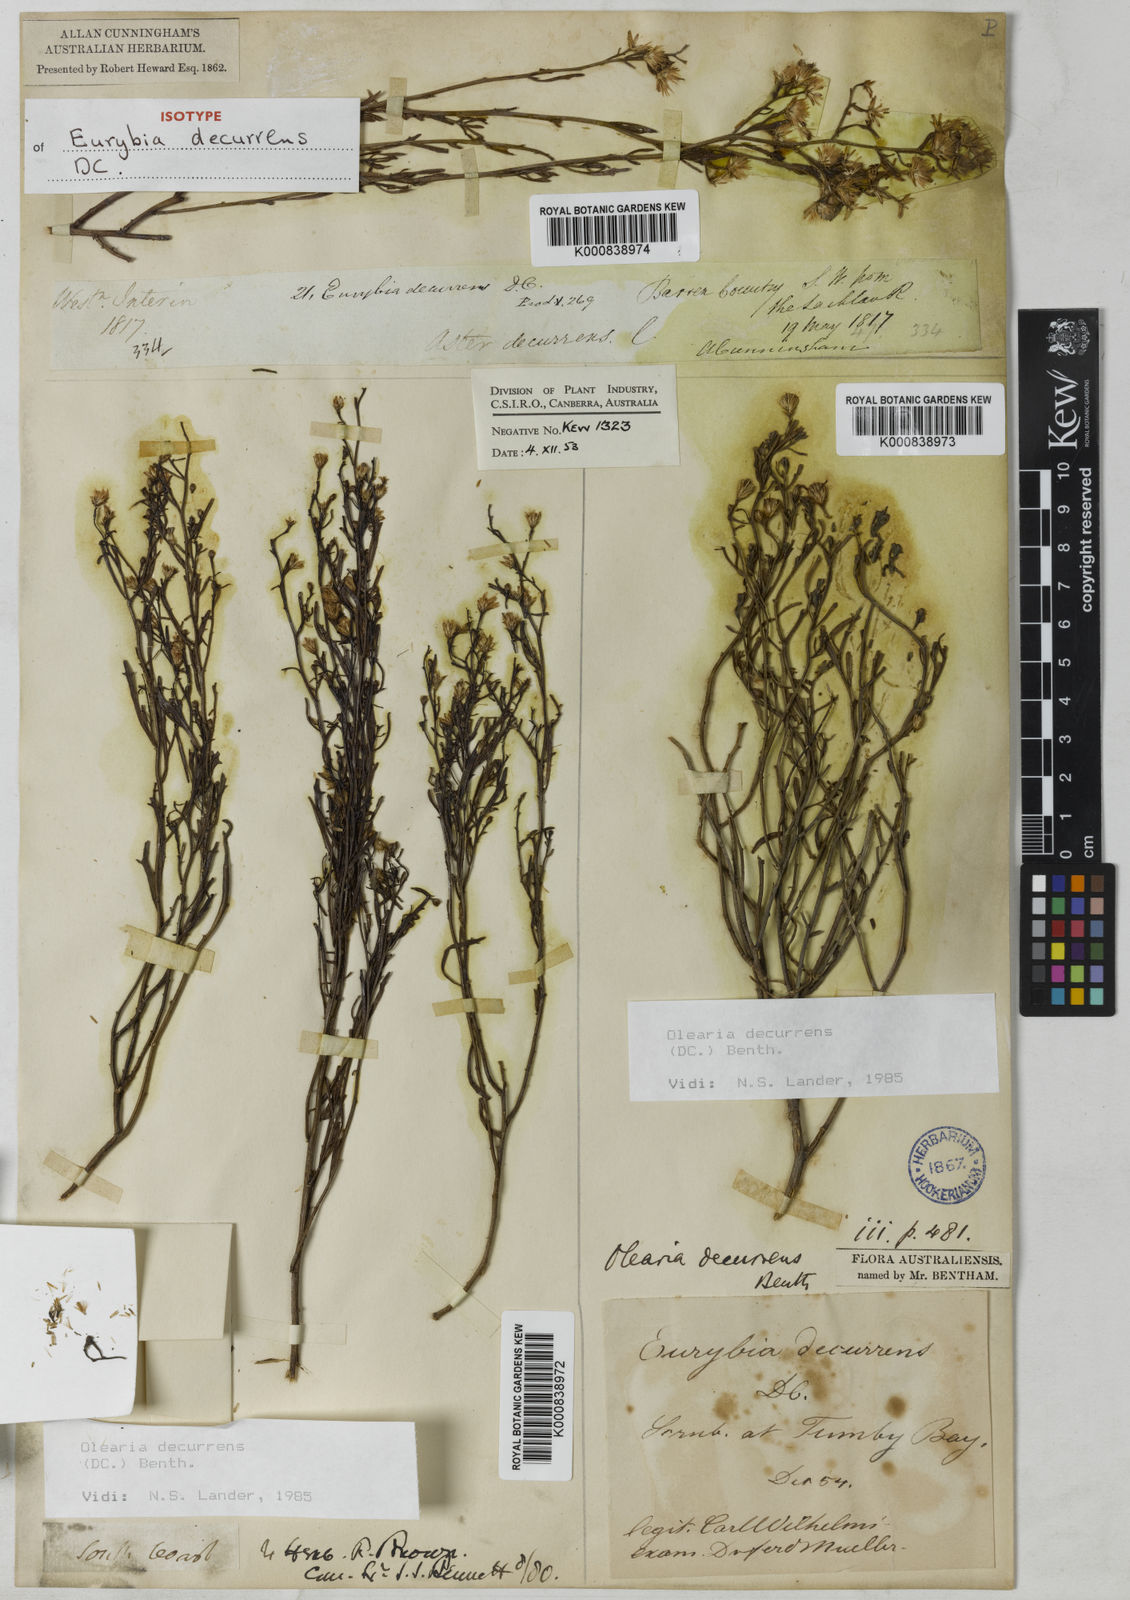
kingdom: Plantae
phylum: Tracheophyta
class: Magnoliopsida
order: Asterales
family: Asteraceae
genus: Olearia
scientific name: Olearia decurrens
